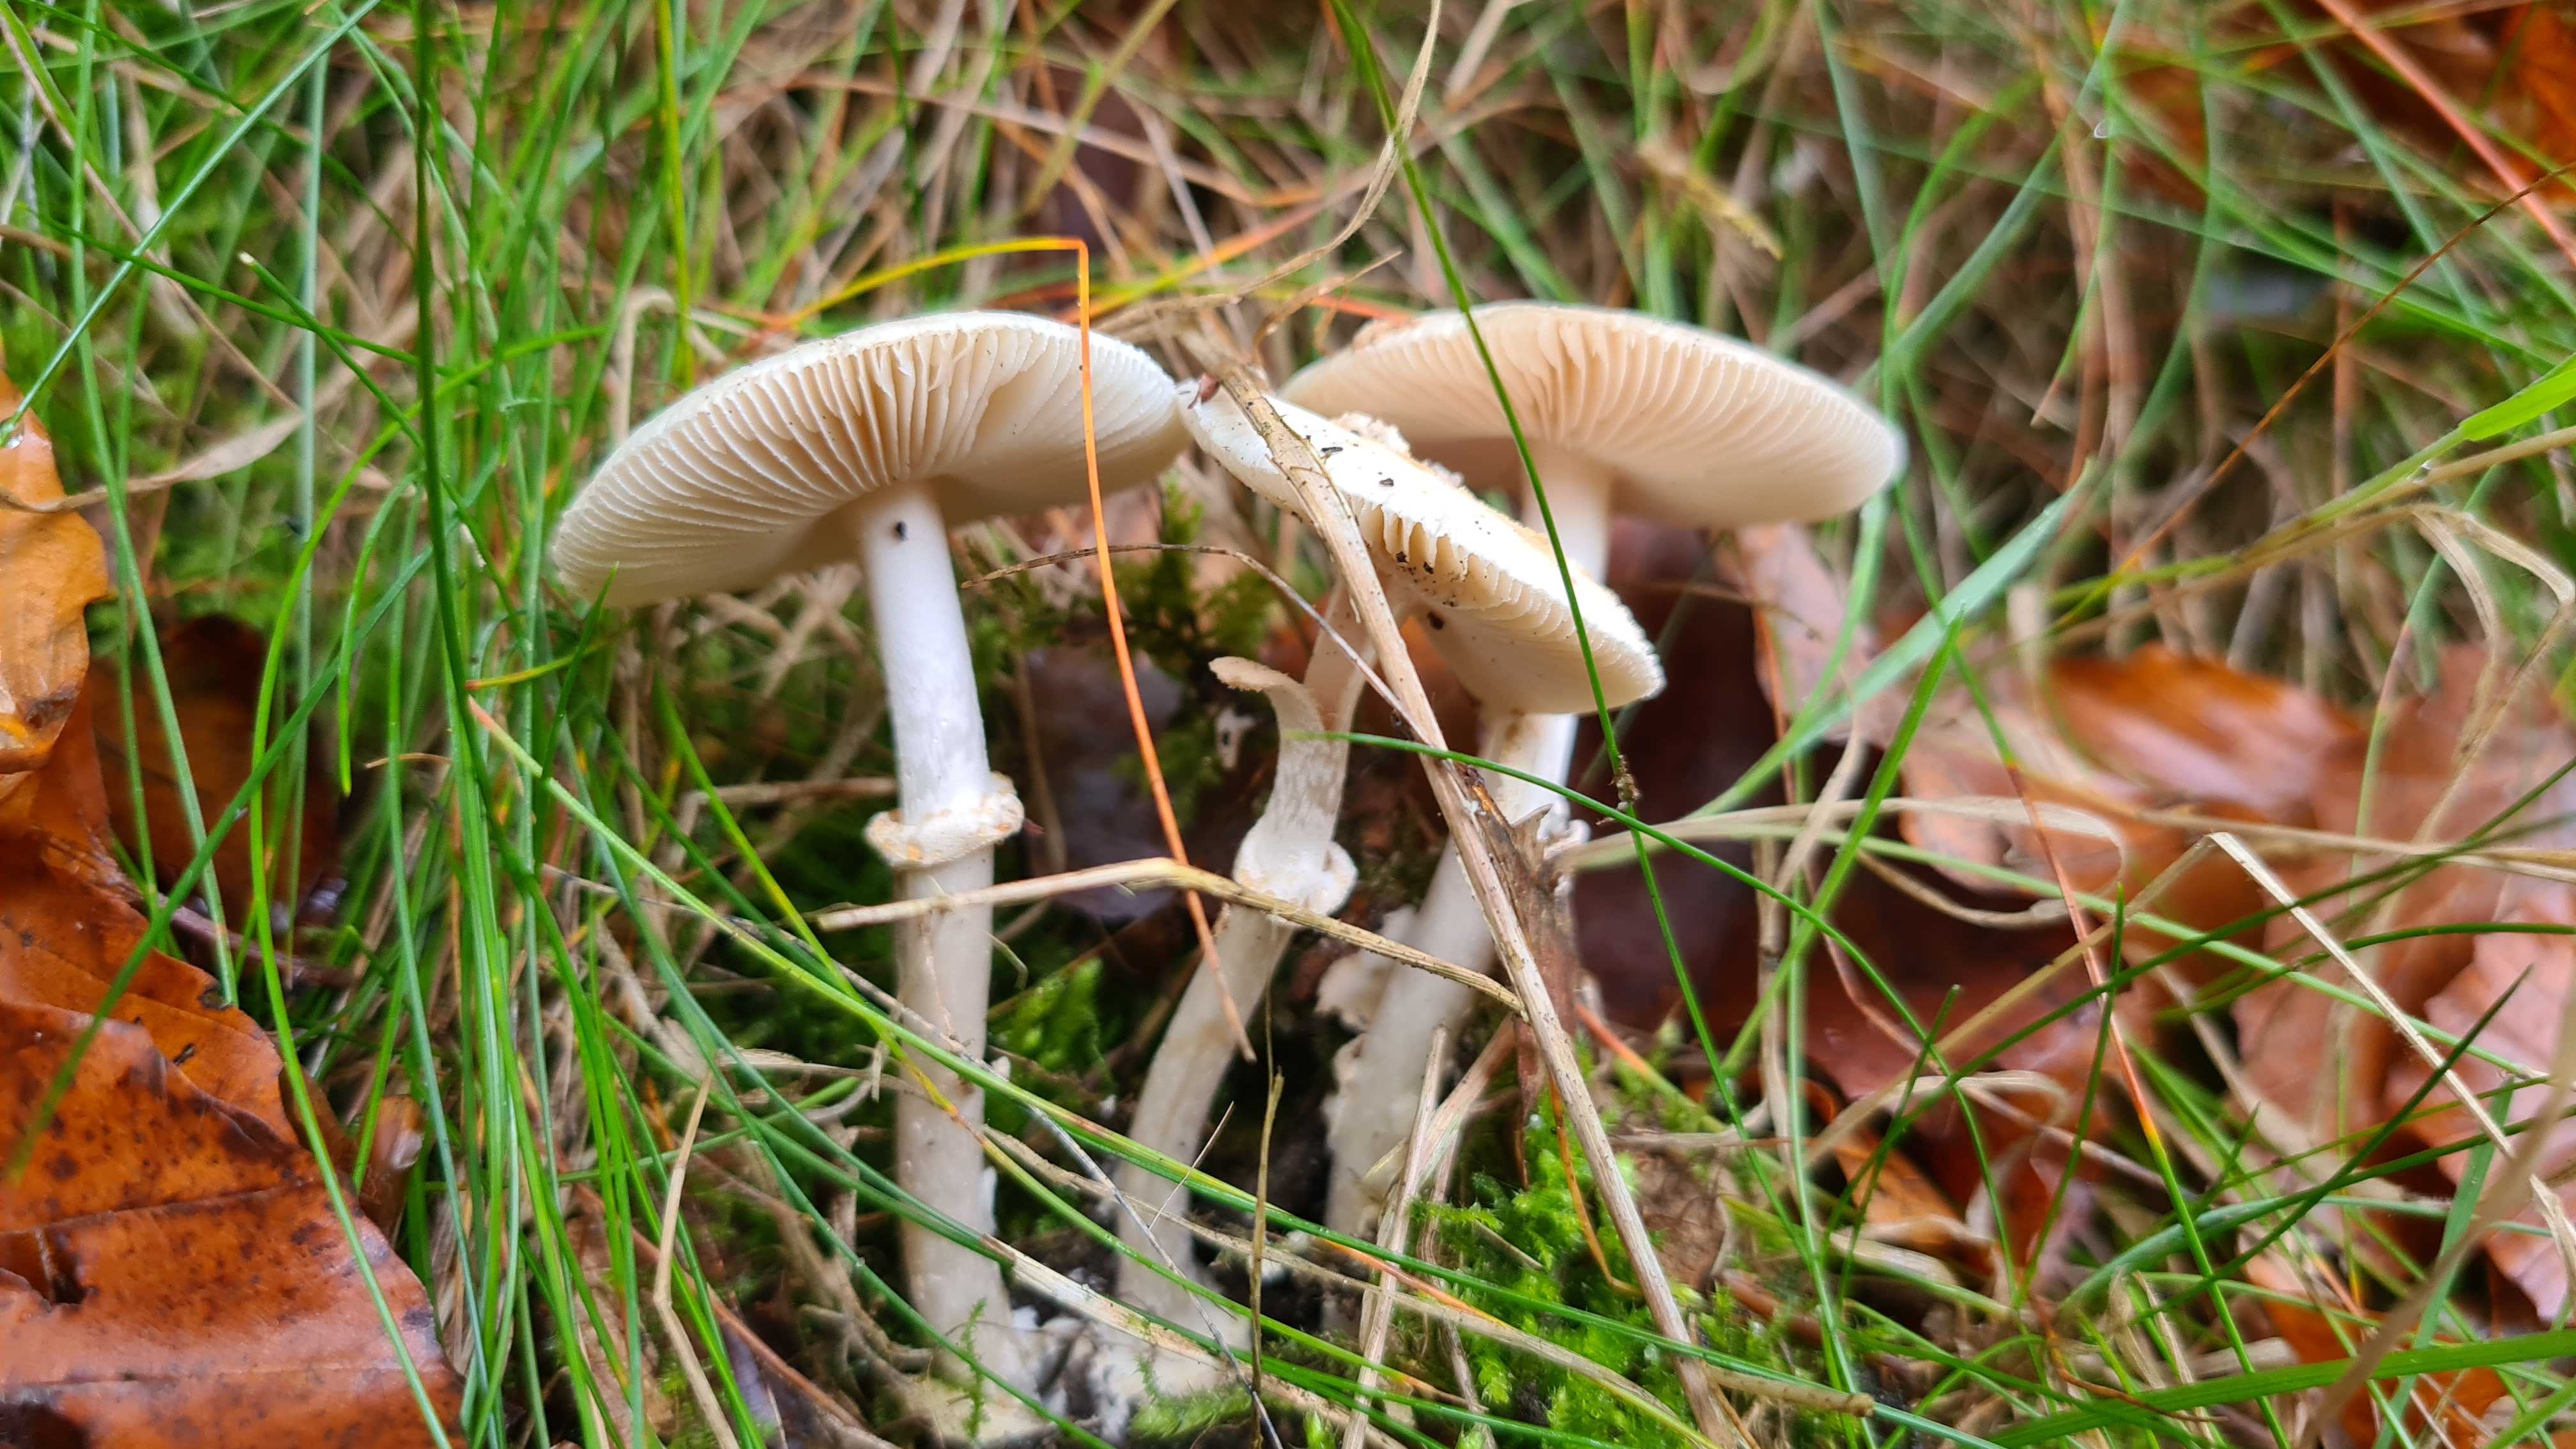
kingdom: Fungi
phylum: Basidiomycota
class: Agaricomycetes
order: Agaricales
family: Amanitaceae
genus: Amanita
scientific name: Amanita
